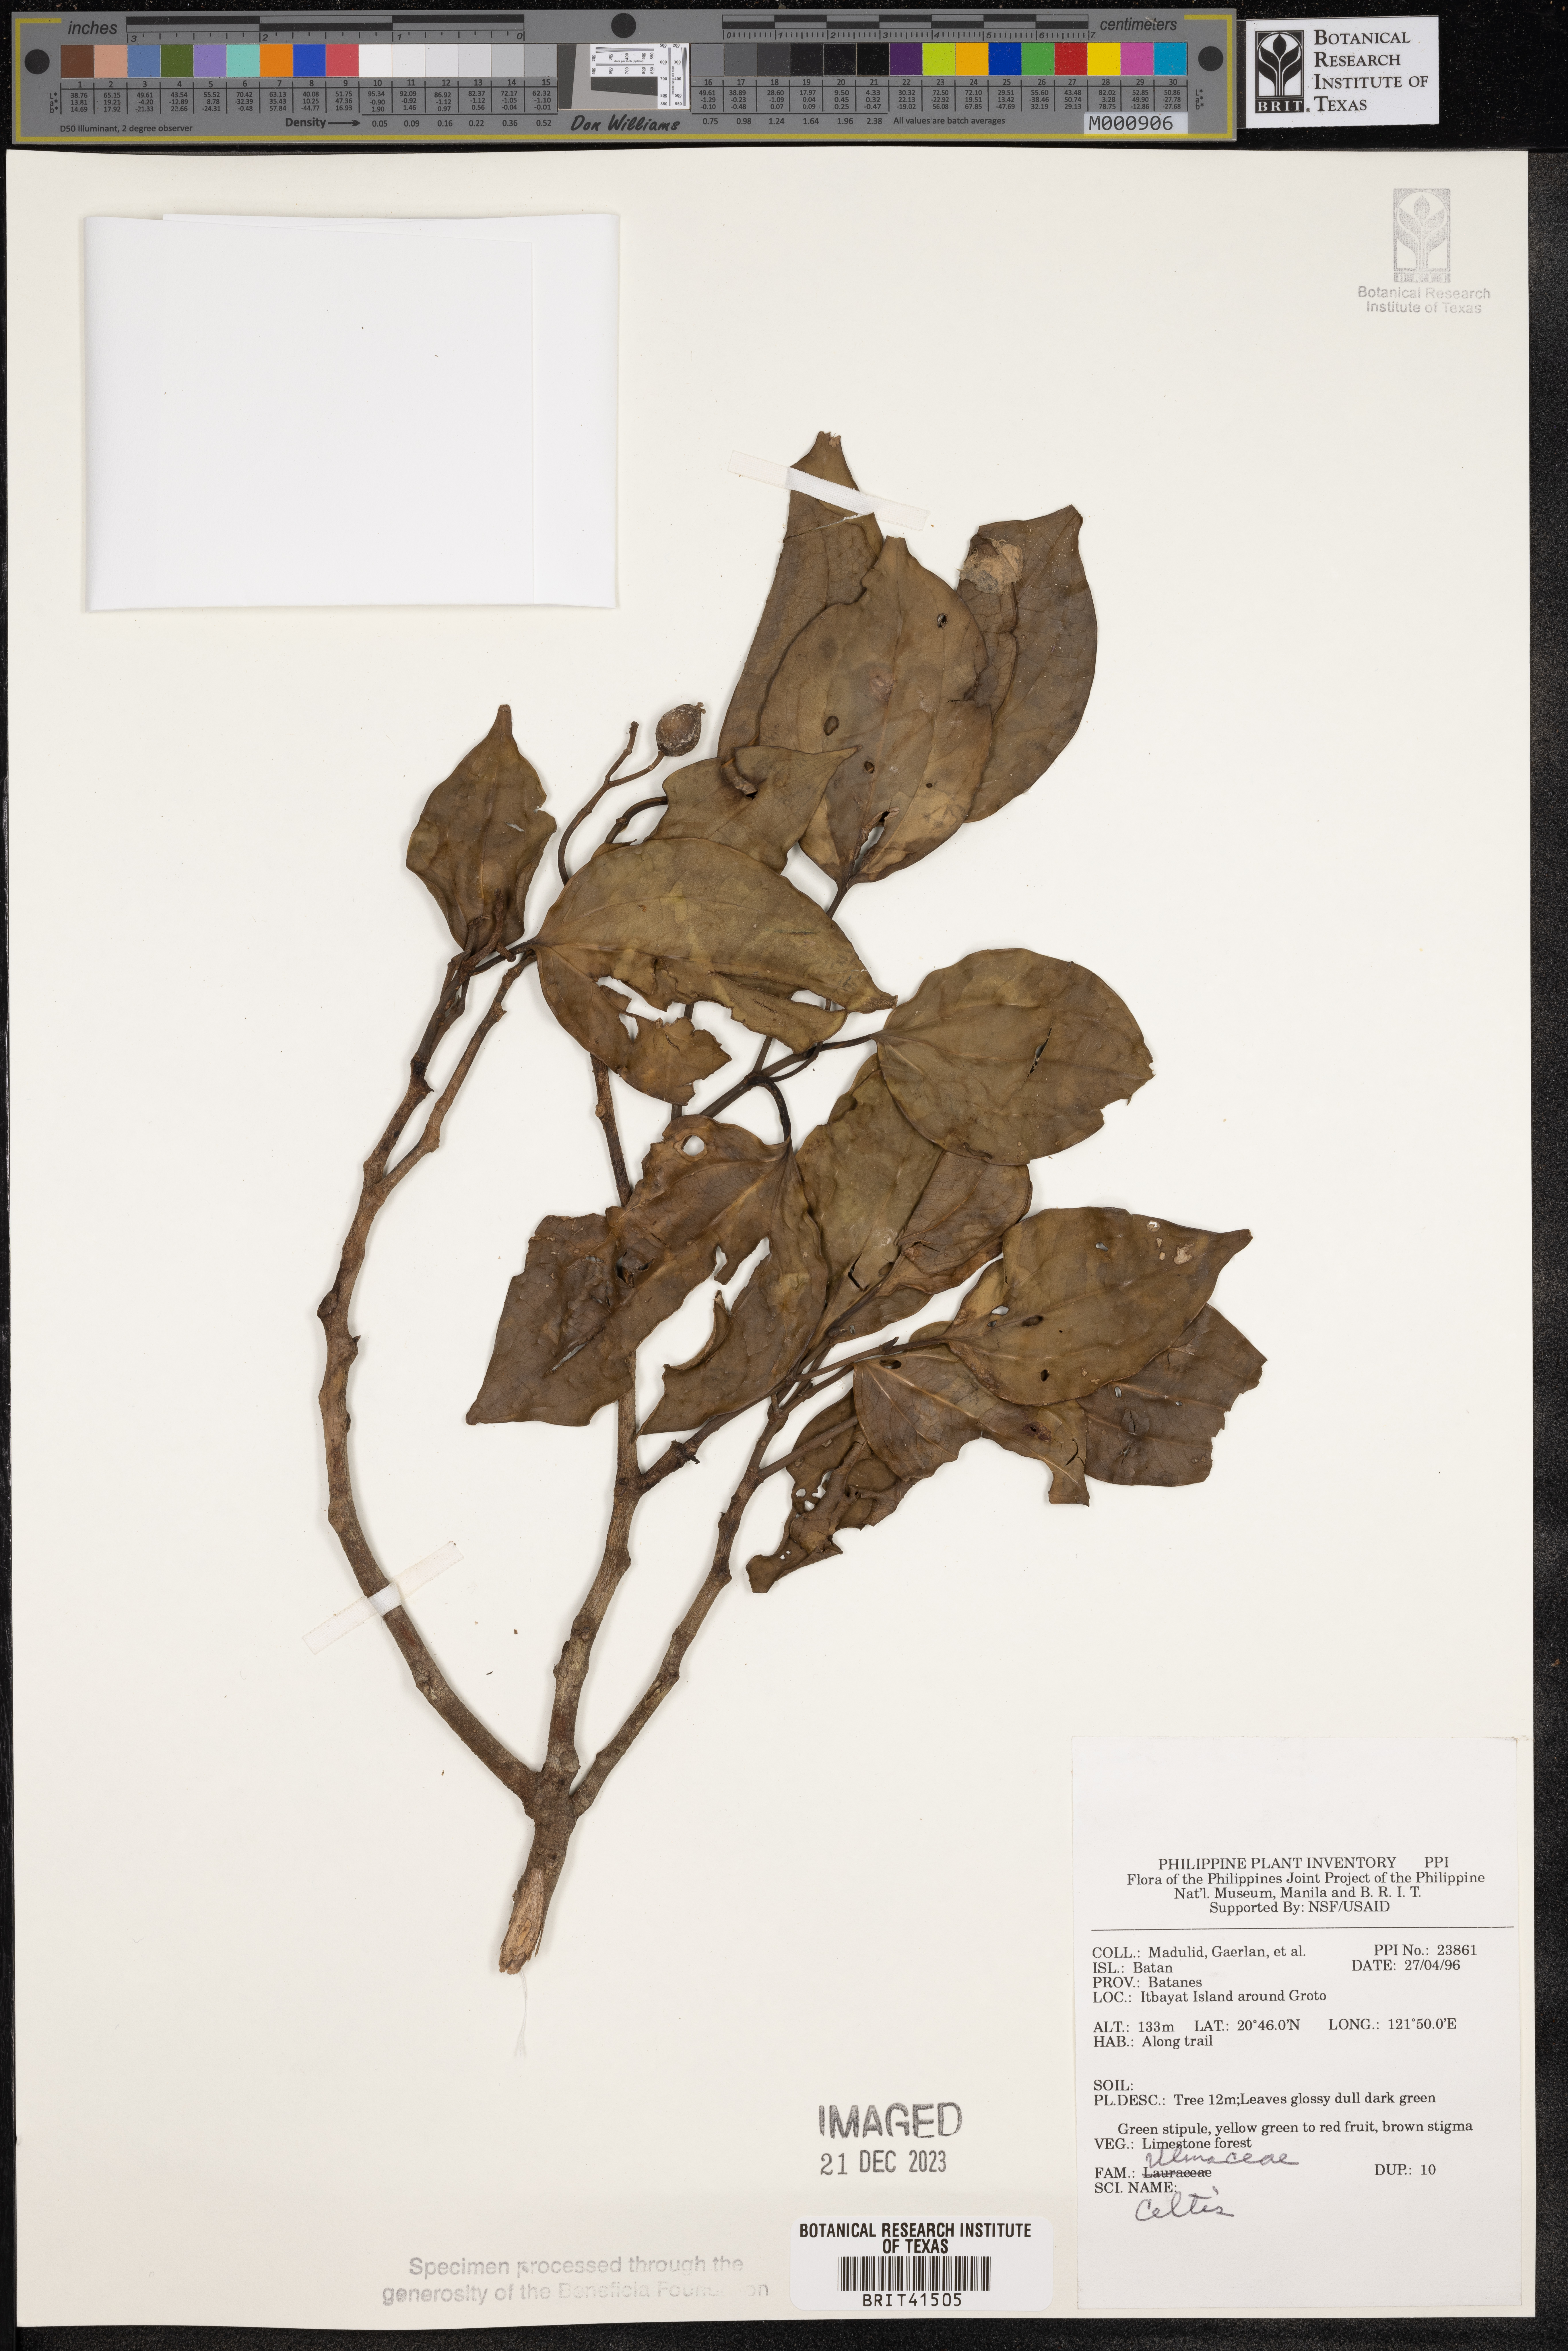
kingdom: Plantae
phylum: Tracheophyta
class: Magnoliopsida
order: Rosales
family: Cannabaceae
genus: Celtis
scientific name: Celtis
